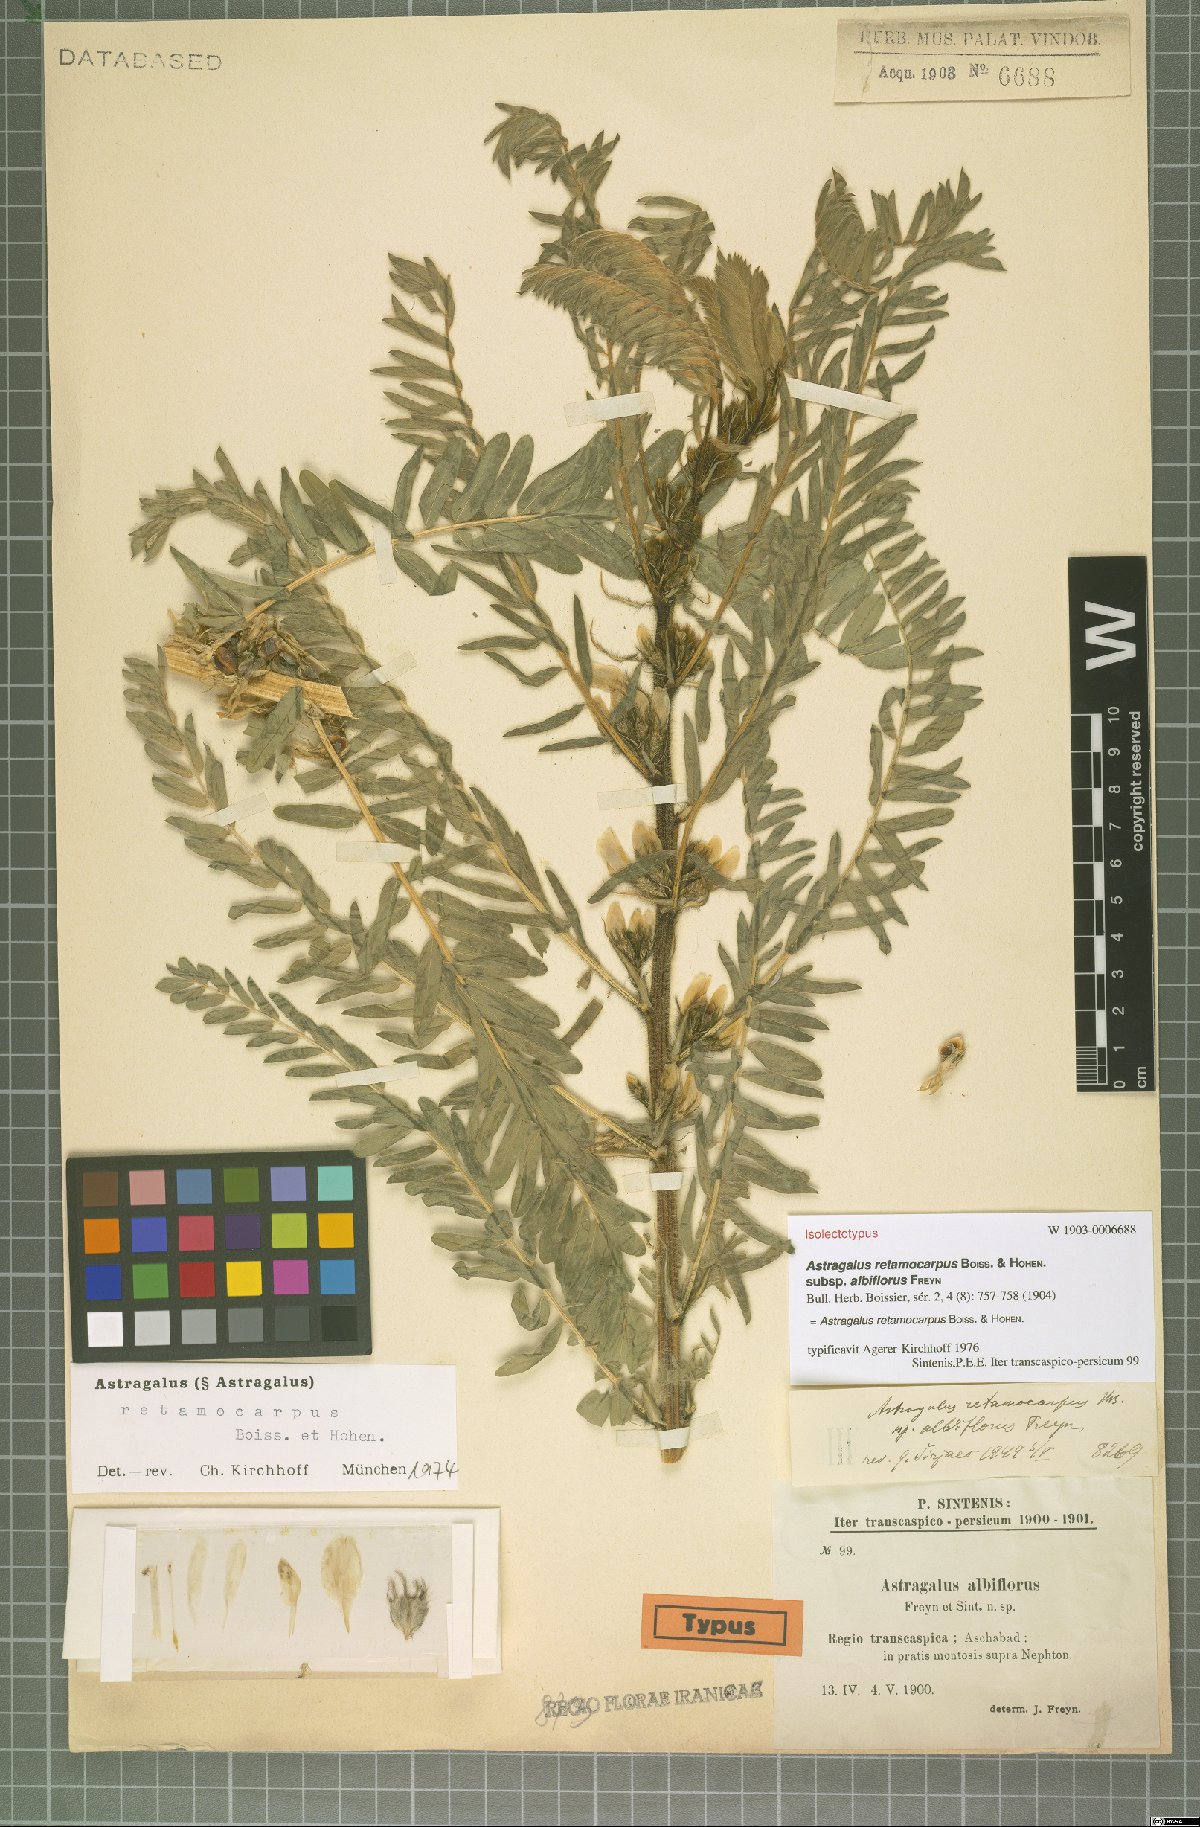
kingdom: Plantae
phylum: Tracheophyta
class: Magnoliopsida
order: Fabales
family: Fabaceae
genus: Astragalus
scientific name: Astragalus retamocarpus
